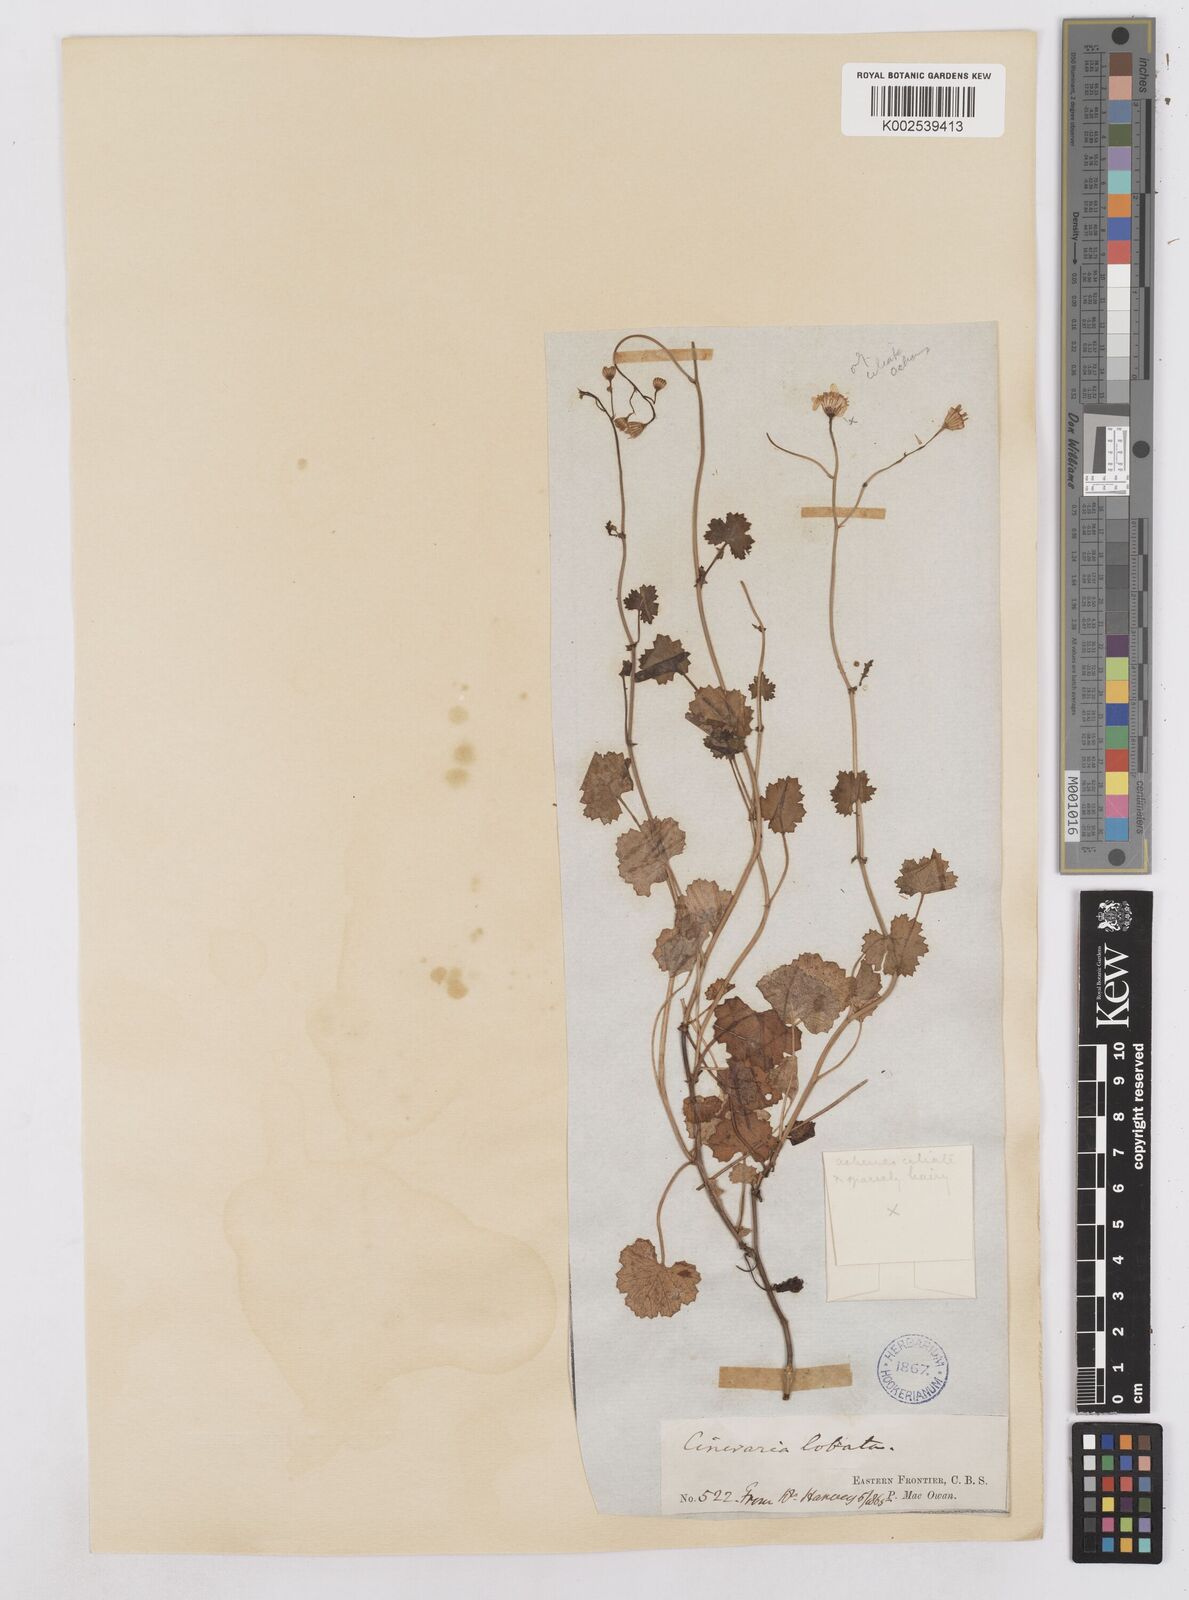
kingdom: Plantae
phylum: Tracheophyta
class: Magnoliopsida
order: Asterales
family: Asteraceae
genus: Cineraria
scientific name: Cineraria
